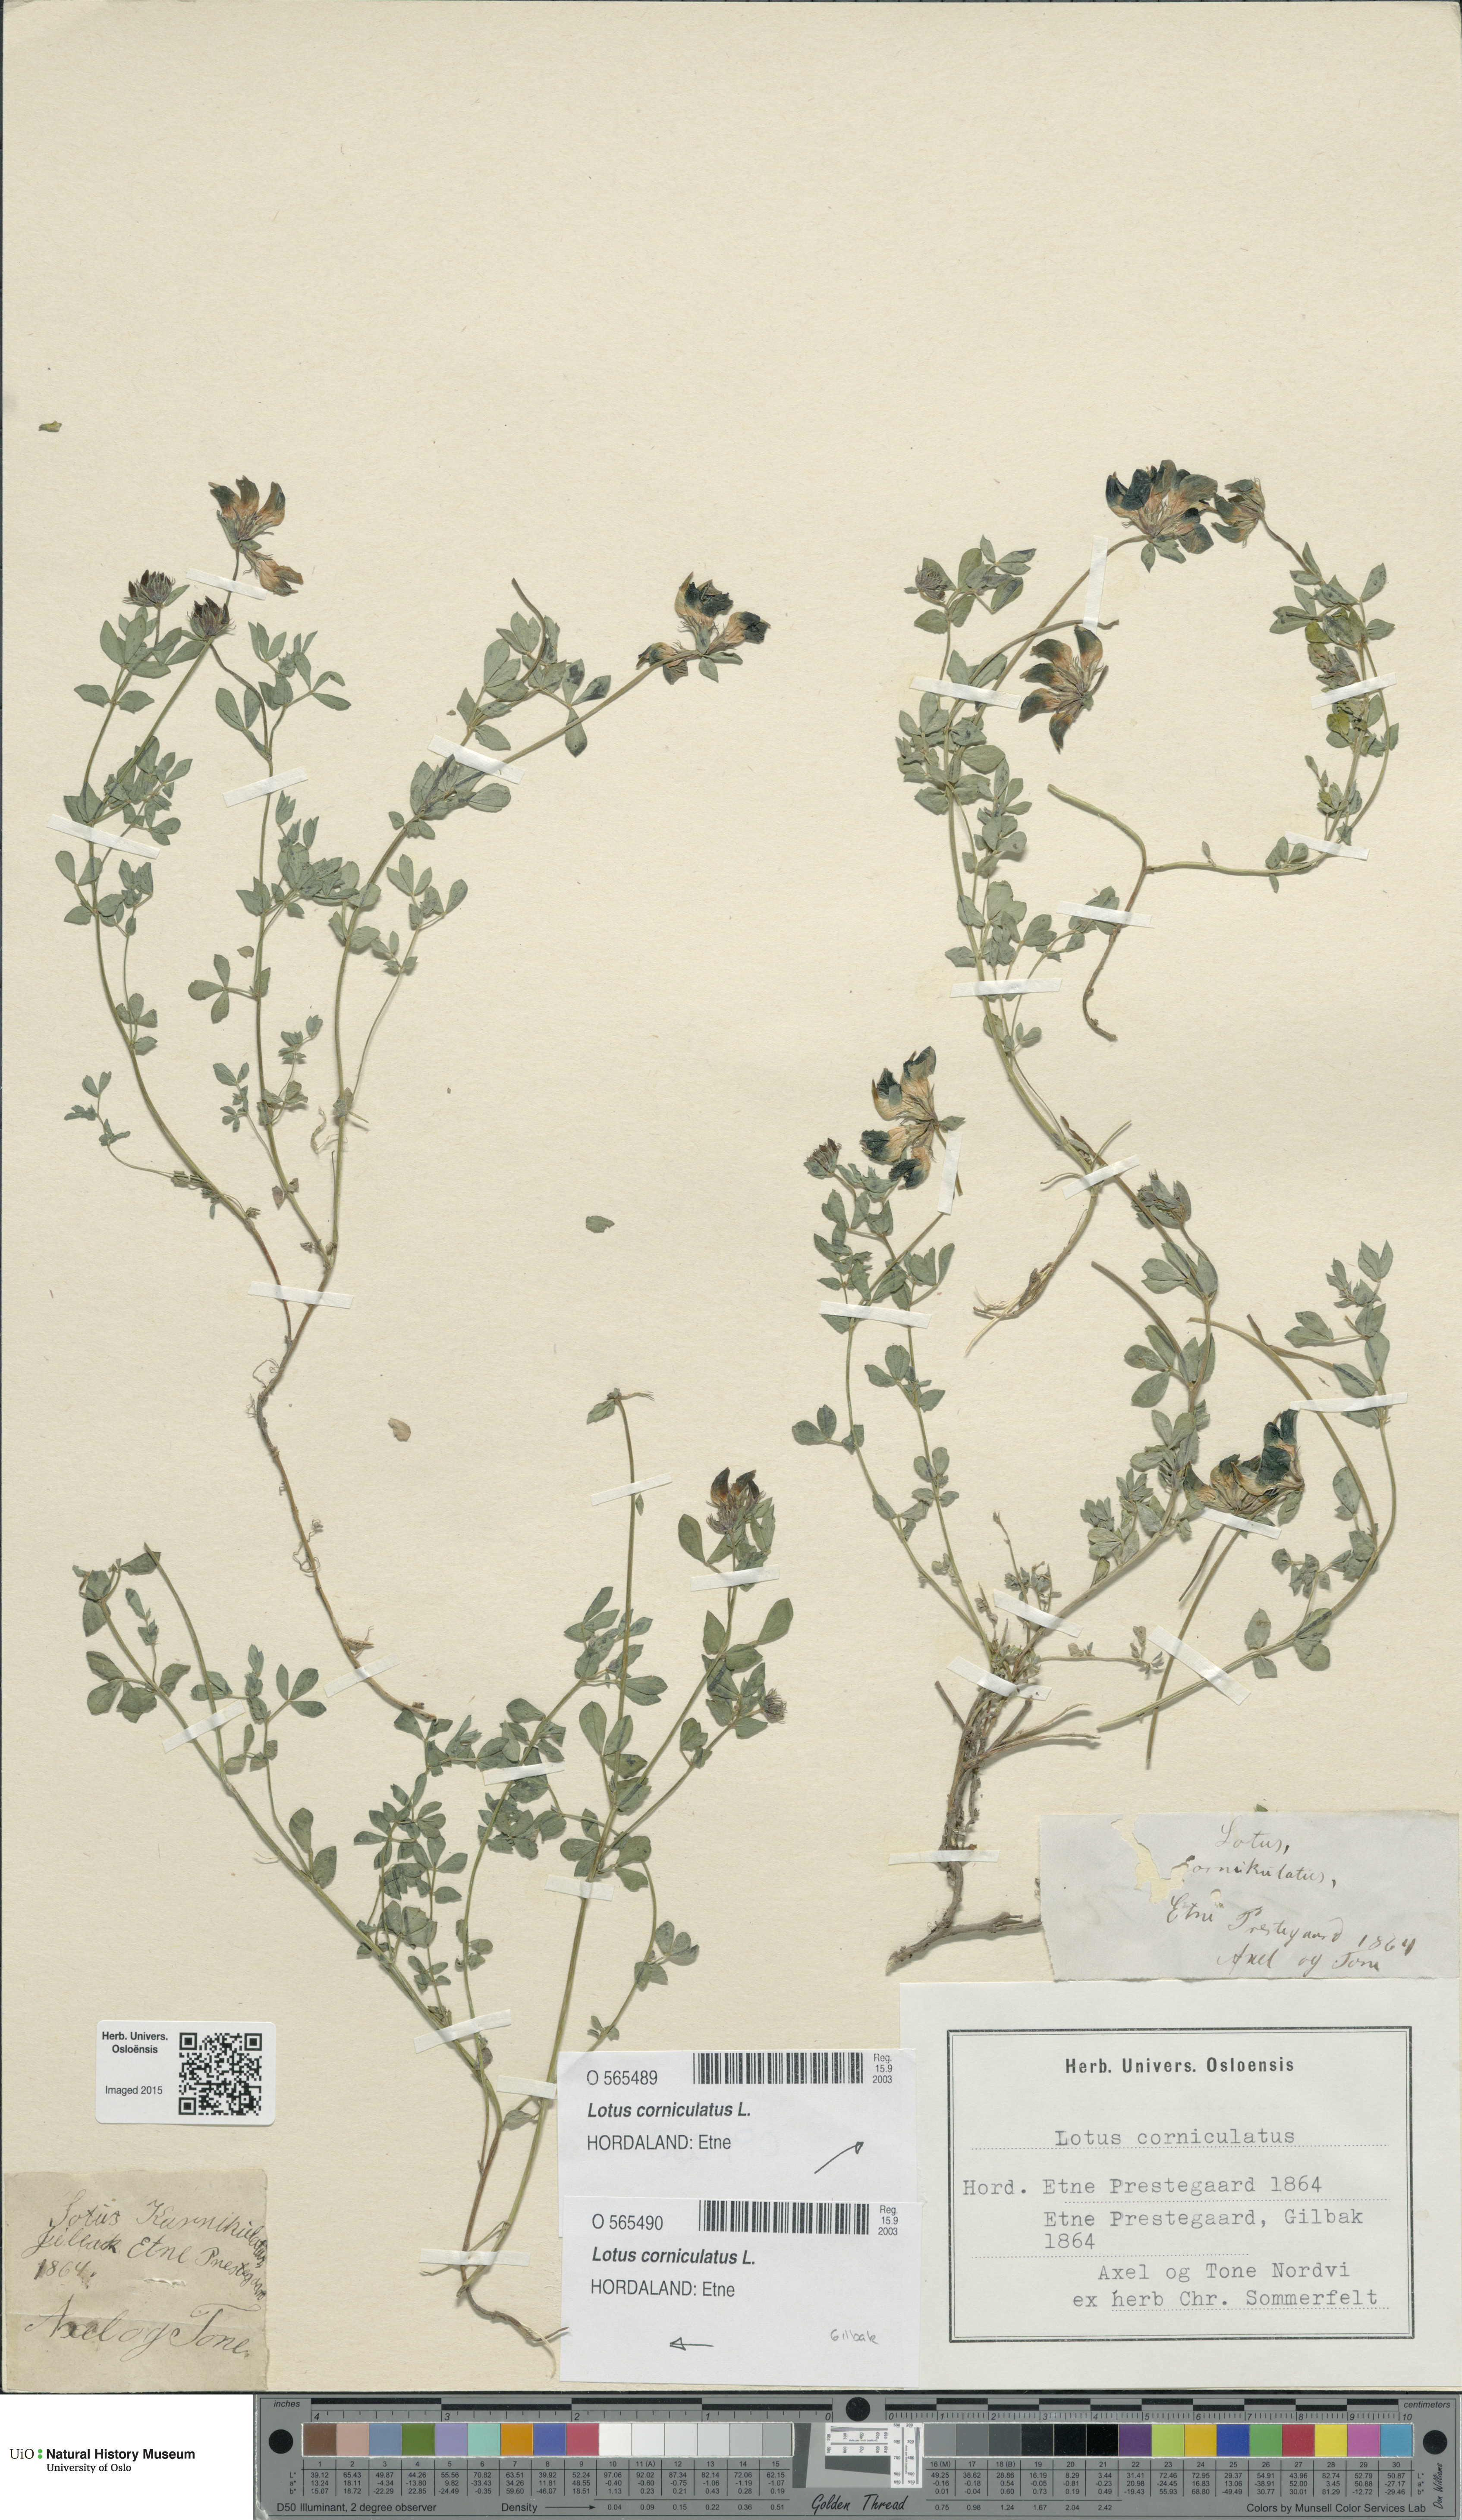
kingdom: Plantae
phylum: Tracheophyta
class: Magnoliopsida
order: Fabales
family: Fabaceae
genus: Lotus
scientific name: Lotus corniculatus
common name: Common bird's-foot-trefoil
